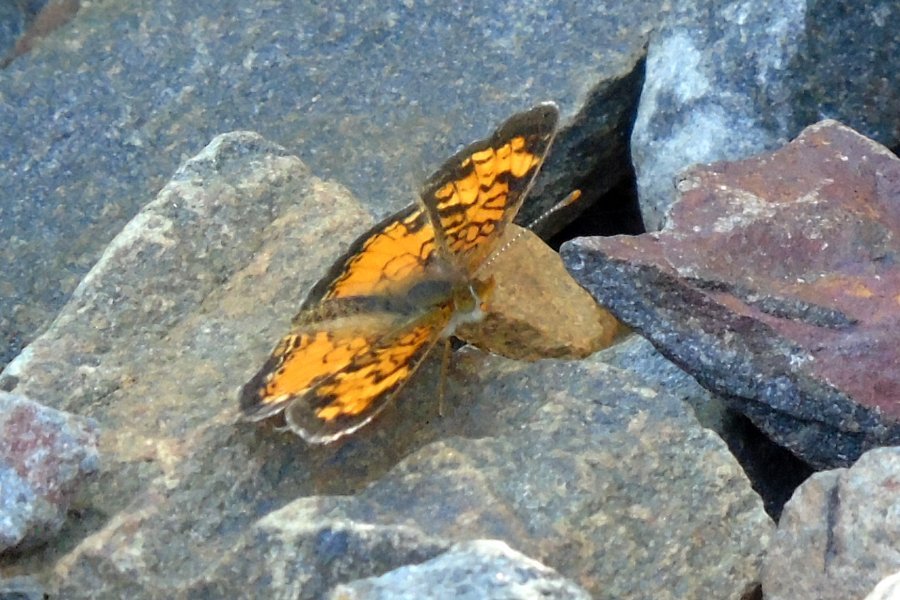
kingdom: Animalia
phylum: Arthropoda
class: Insecta
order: Lepidoptera
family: Nymphalidae
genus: Phyciodes
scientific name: Phyciodes tharos
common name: Northern Crescent
